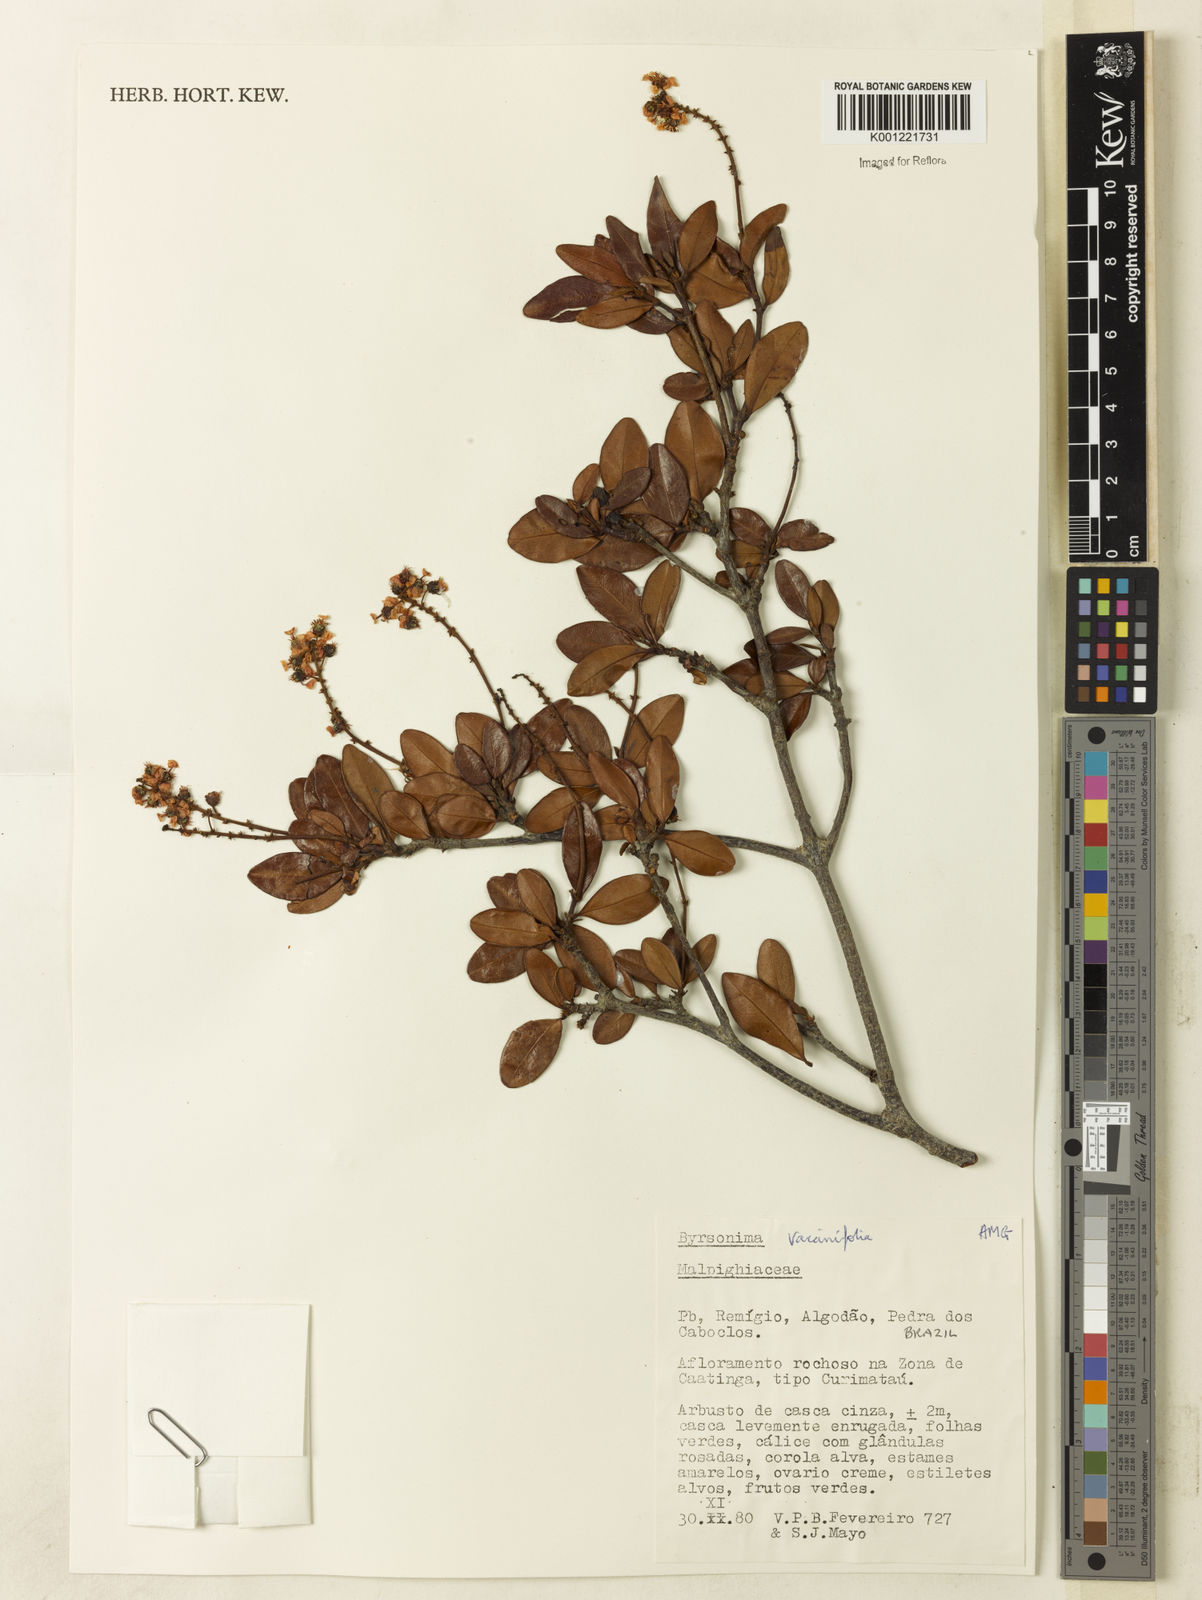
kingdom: Plantae
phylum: Tracheophyta
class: Magnoliopsida
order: Malpighiales
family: Malpighiaceae
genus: Byrsonima
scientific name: Byrsonima vacciniifolia
